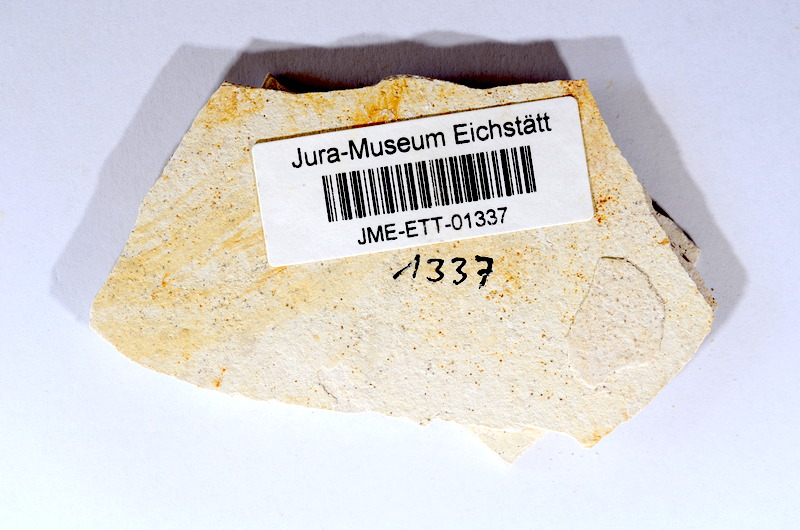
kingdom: Animalia
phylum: Chordata
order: Salmoniformes
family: Orthogonikleithridae
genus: Orthogonikleithrus
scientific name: Orthogonikleithrus hoelli
